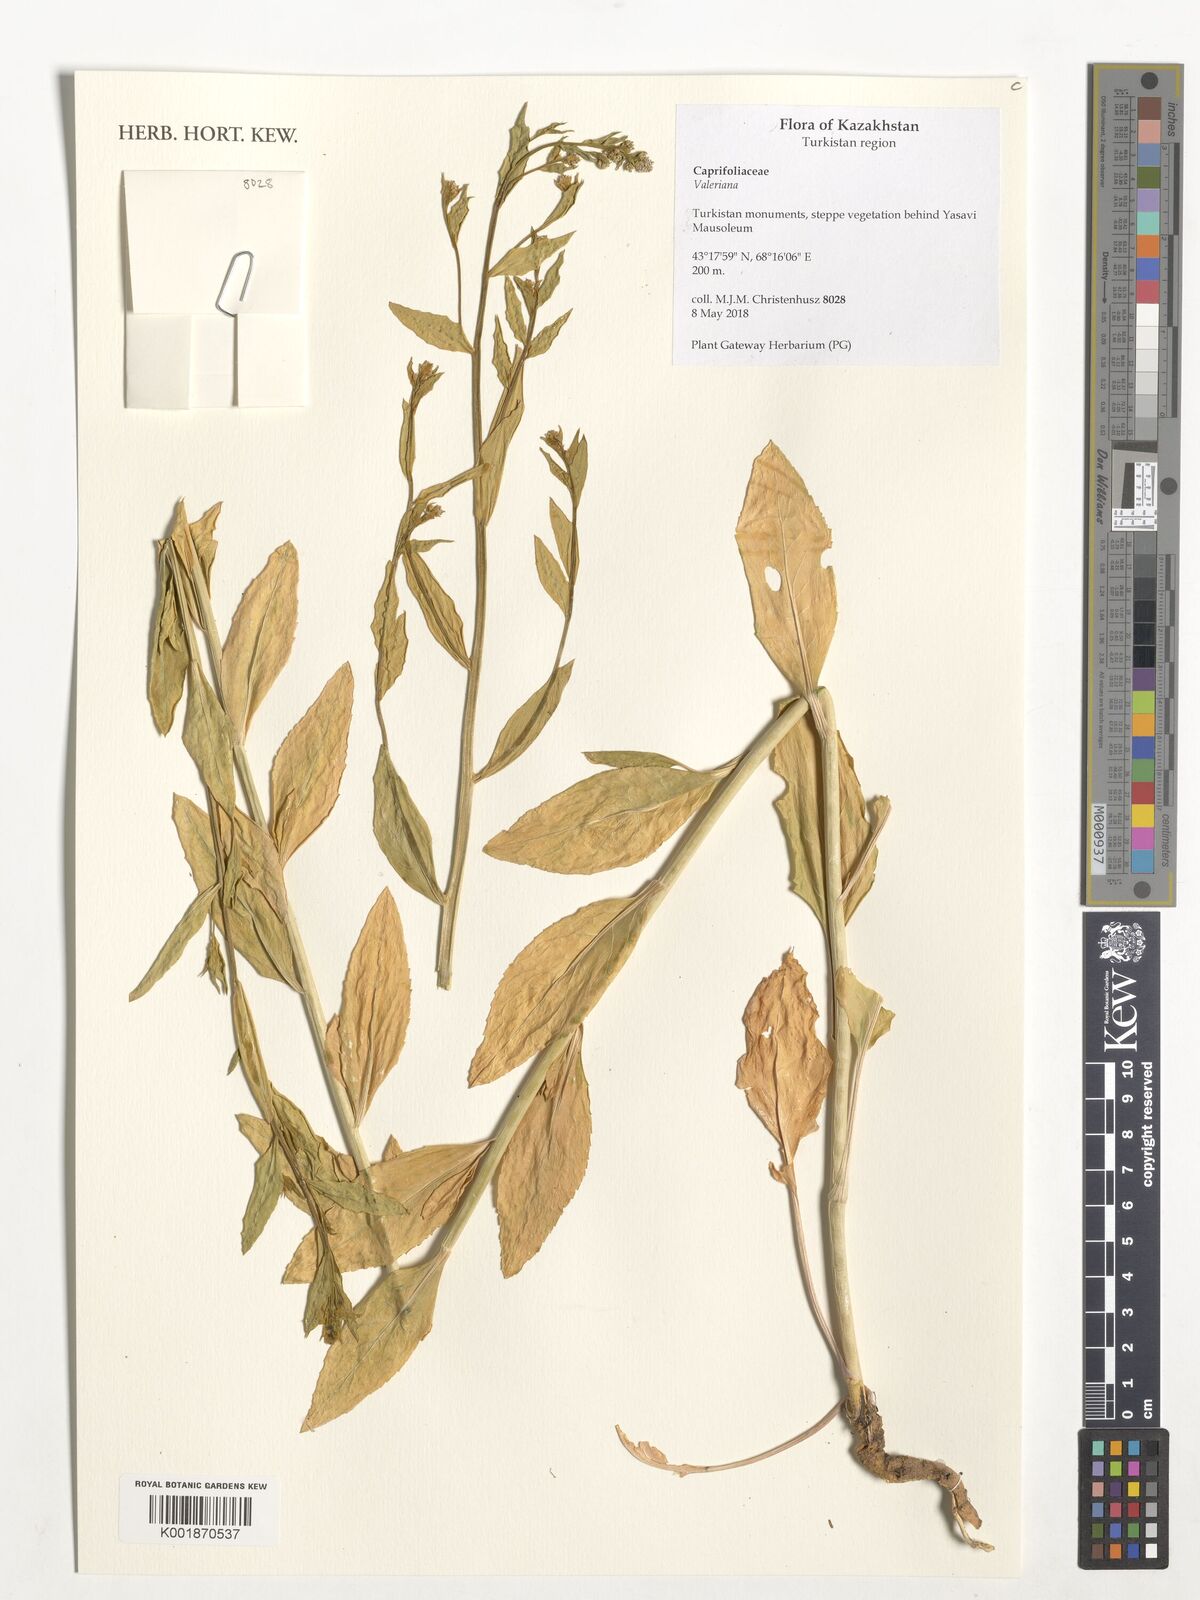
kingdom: Plantae
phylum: Tracheophyta
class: Magnoliopsida
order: Dipsacales
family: Caprifoliaceae
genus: Valeriana
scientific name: Valeriana
